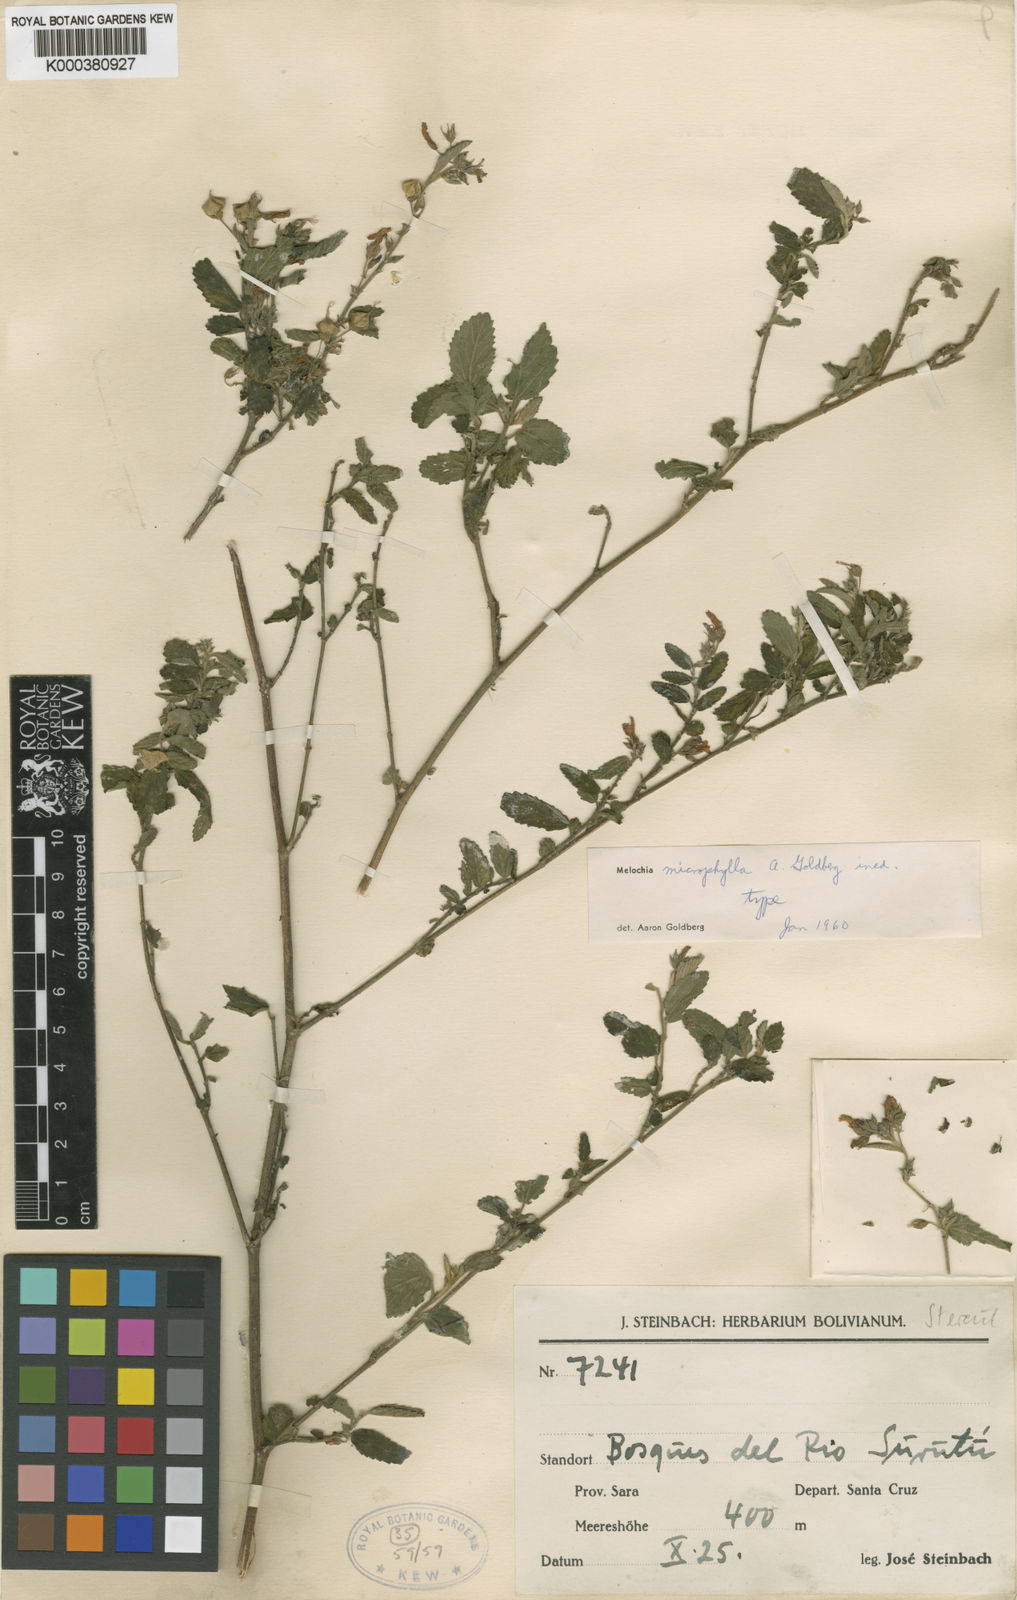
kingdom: Plantae
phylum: Tracheophyta
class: Magnoliopsida
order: Malvales
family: Malvaceae
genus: Melochia
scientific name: Melochia
